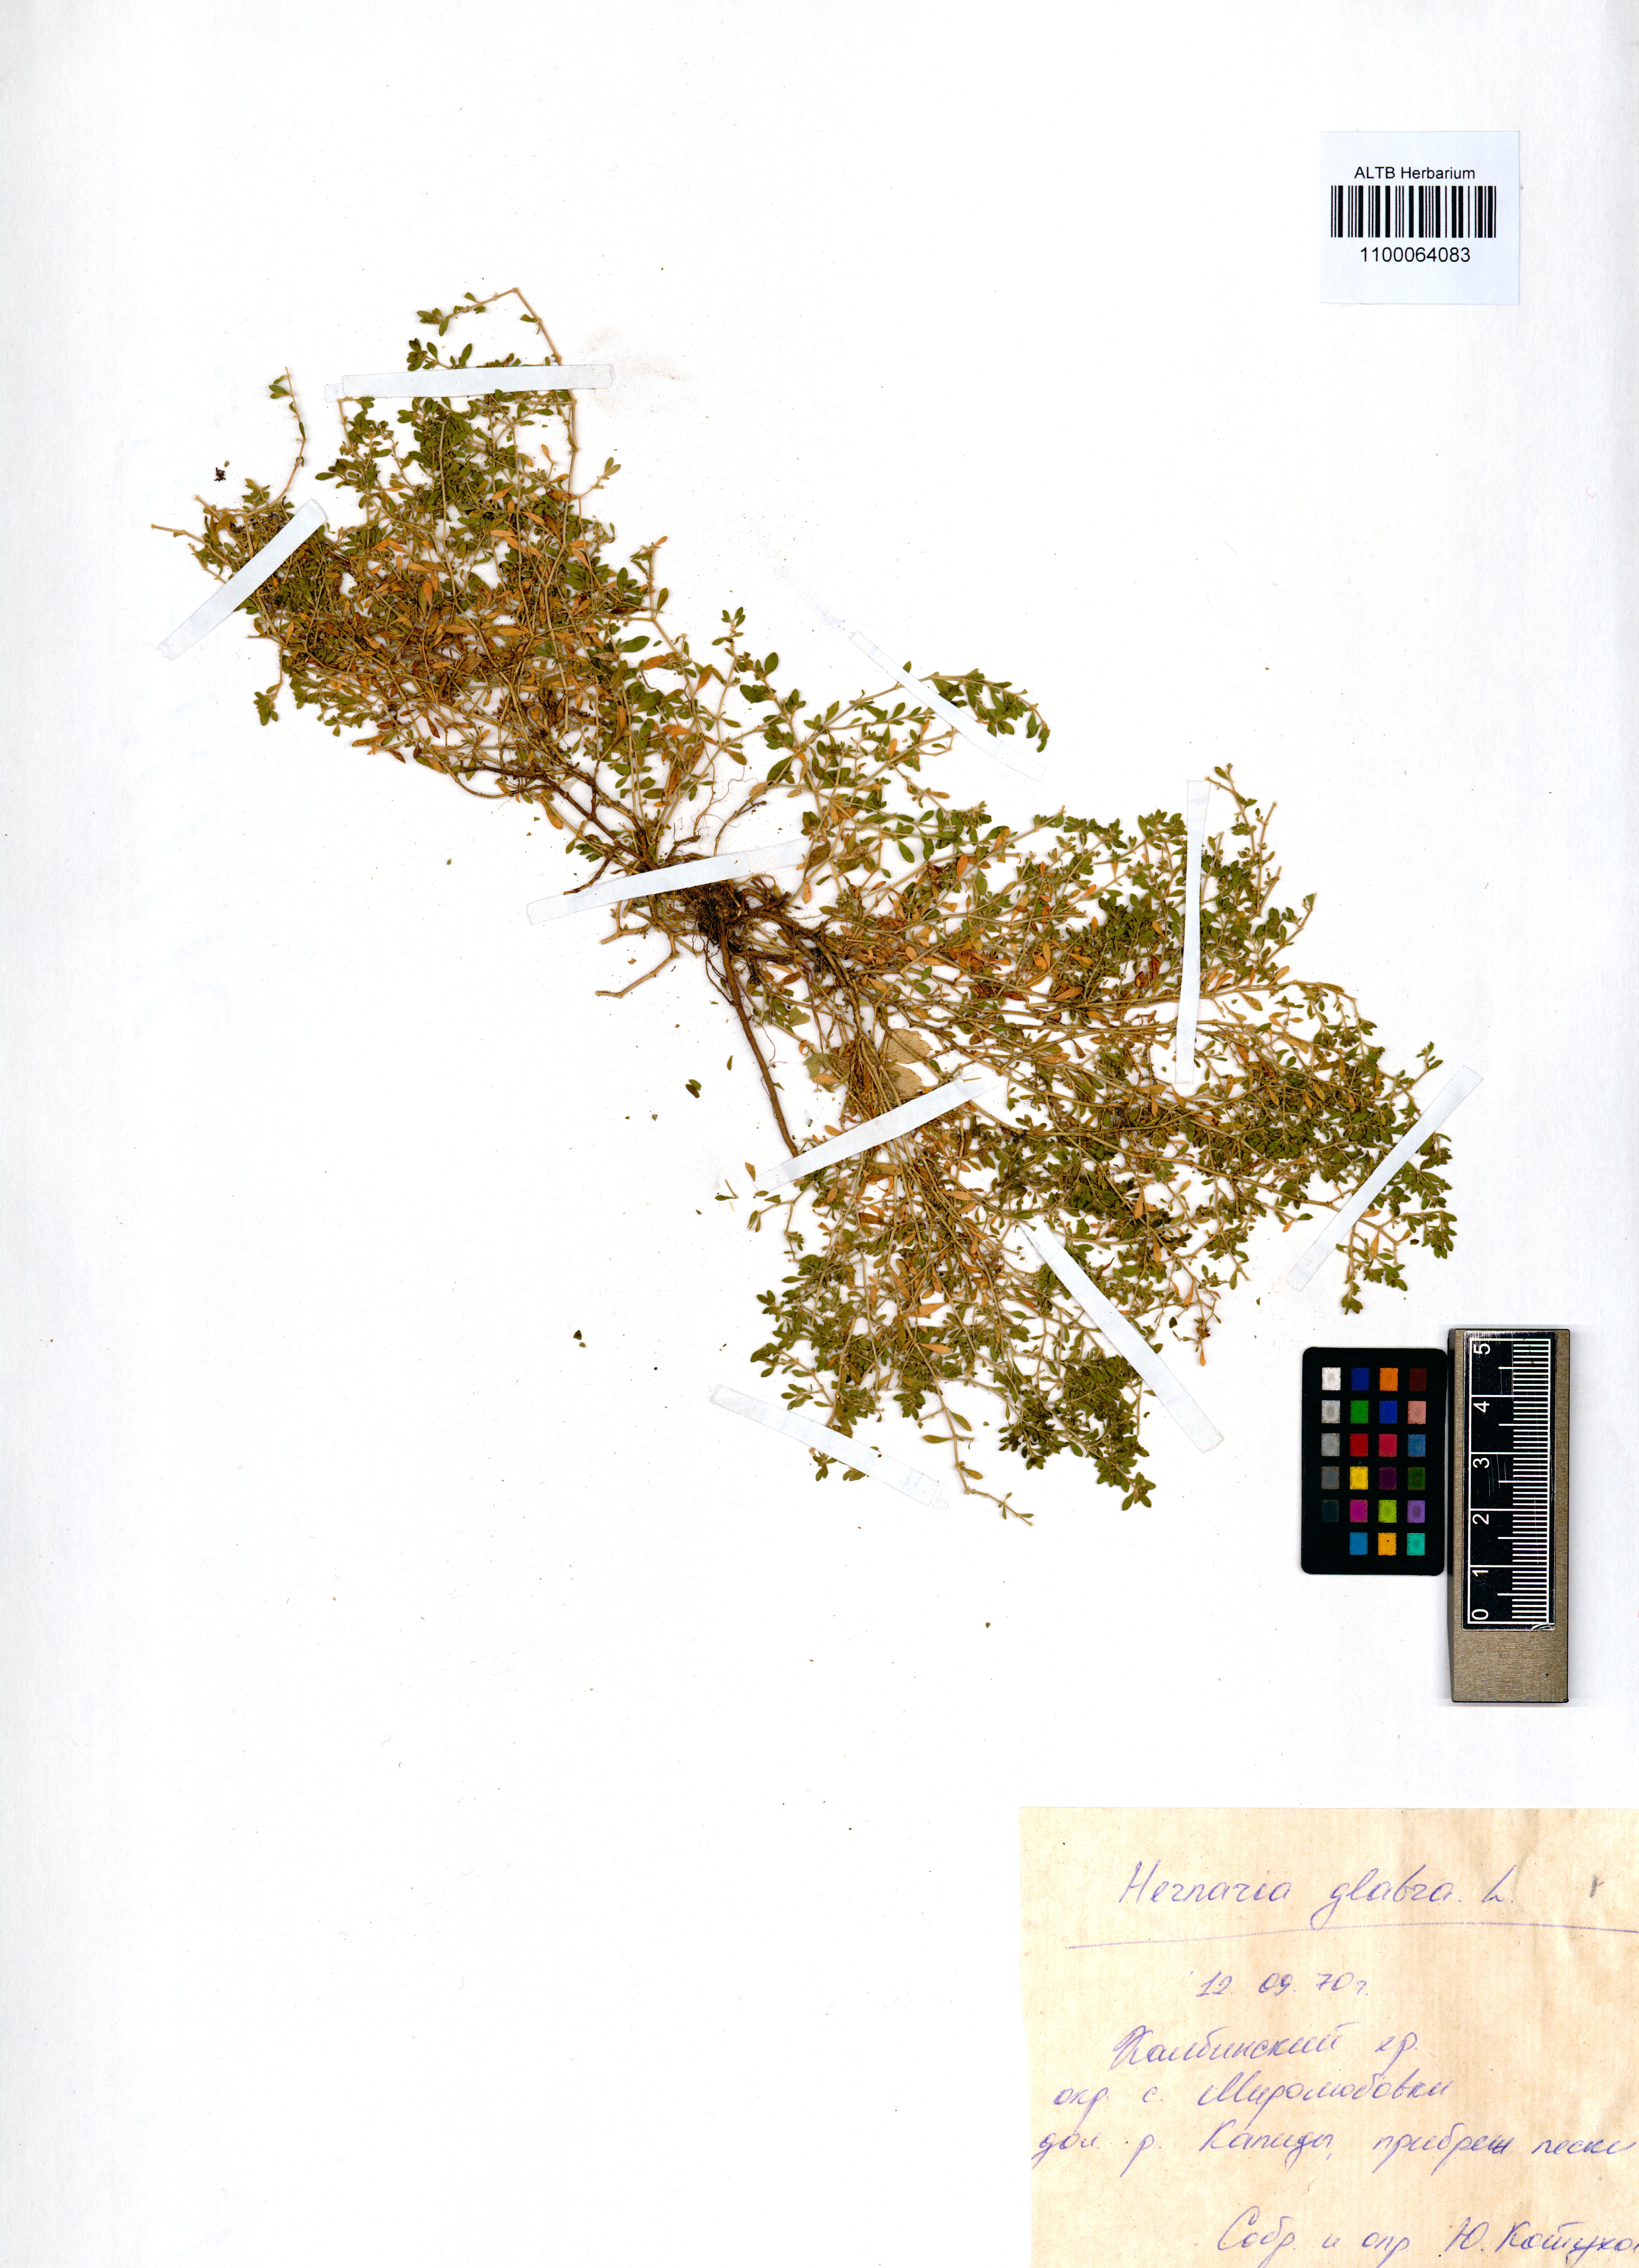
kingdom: Plantae
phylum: Tracheophyta
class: Magnoliopsida
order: Caryophyllales
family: Caryophyllaceae
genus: Herniaria
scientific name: Herniaria glabra
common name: Smooth rupturewort
